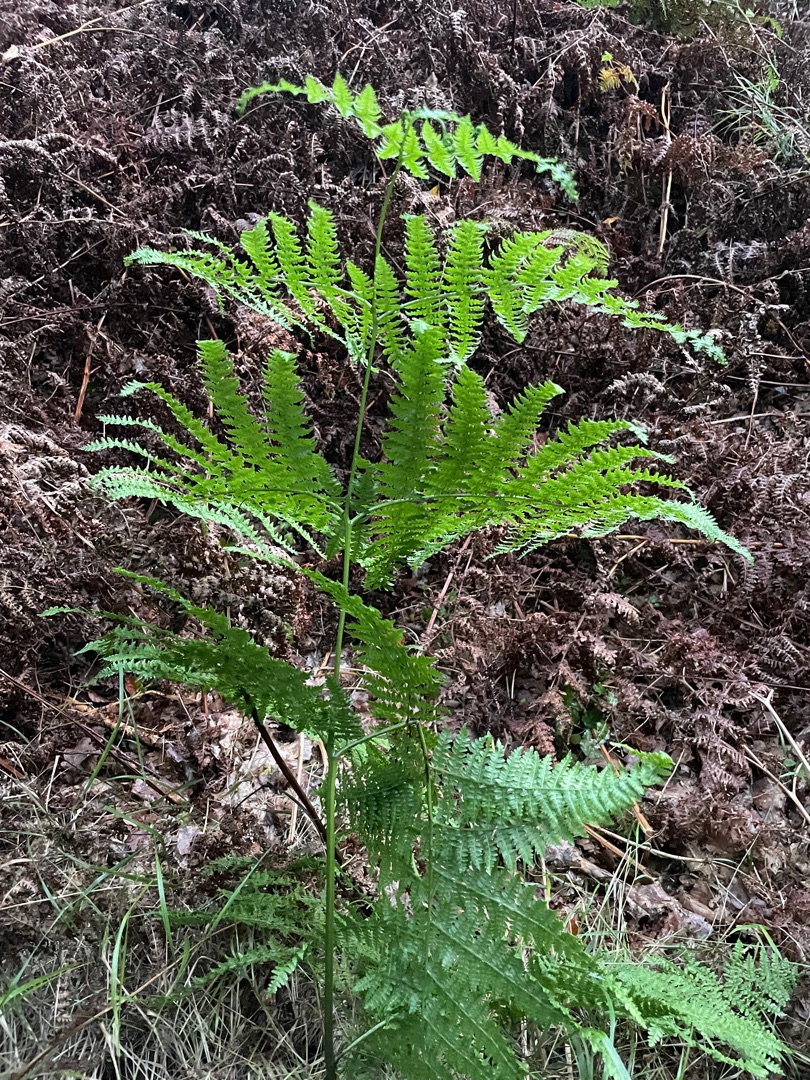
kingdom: Plantae
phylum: Tracheophyta
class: Polypodiopsida
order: Polypodiales
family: Dennstaedtiaceae
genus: Pteridium
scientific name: Pteridium aquilinum
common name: Ørnebregne
